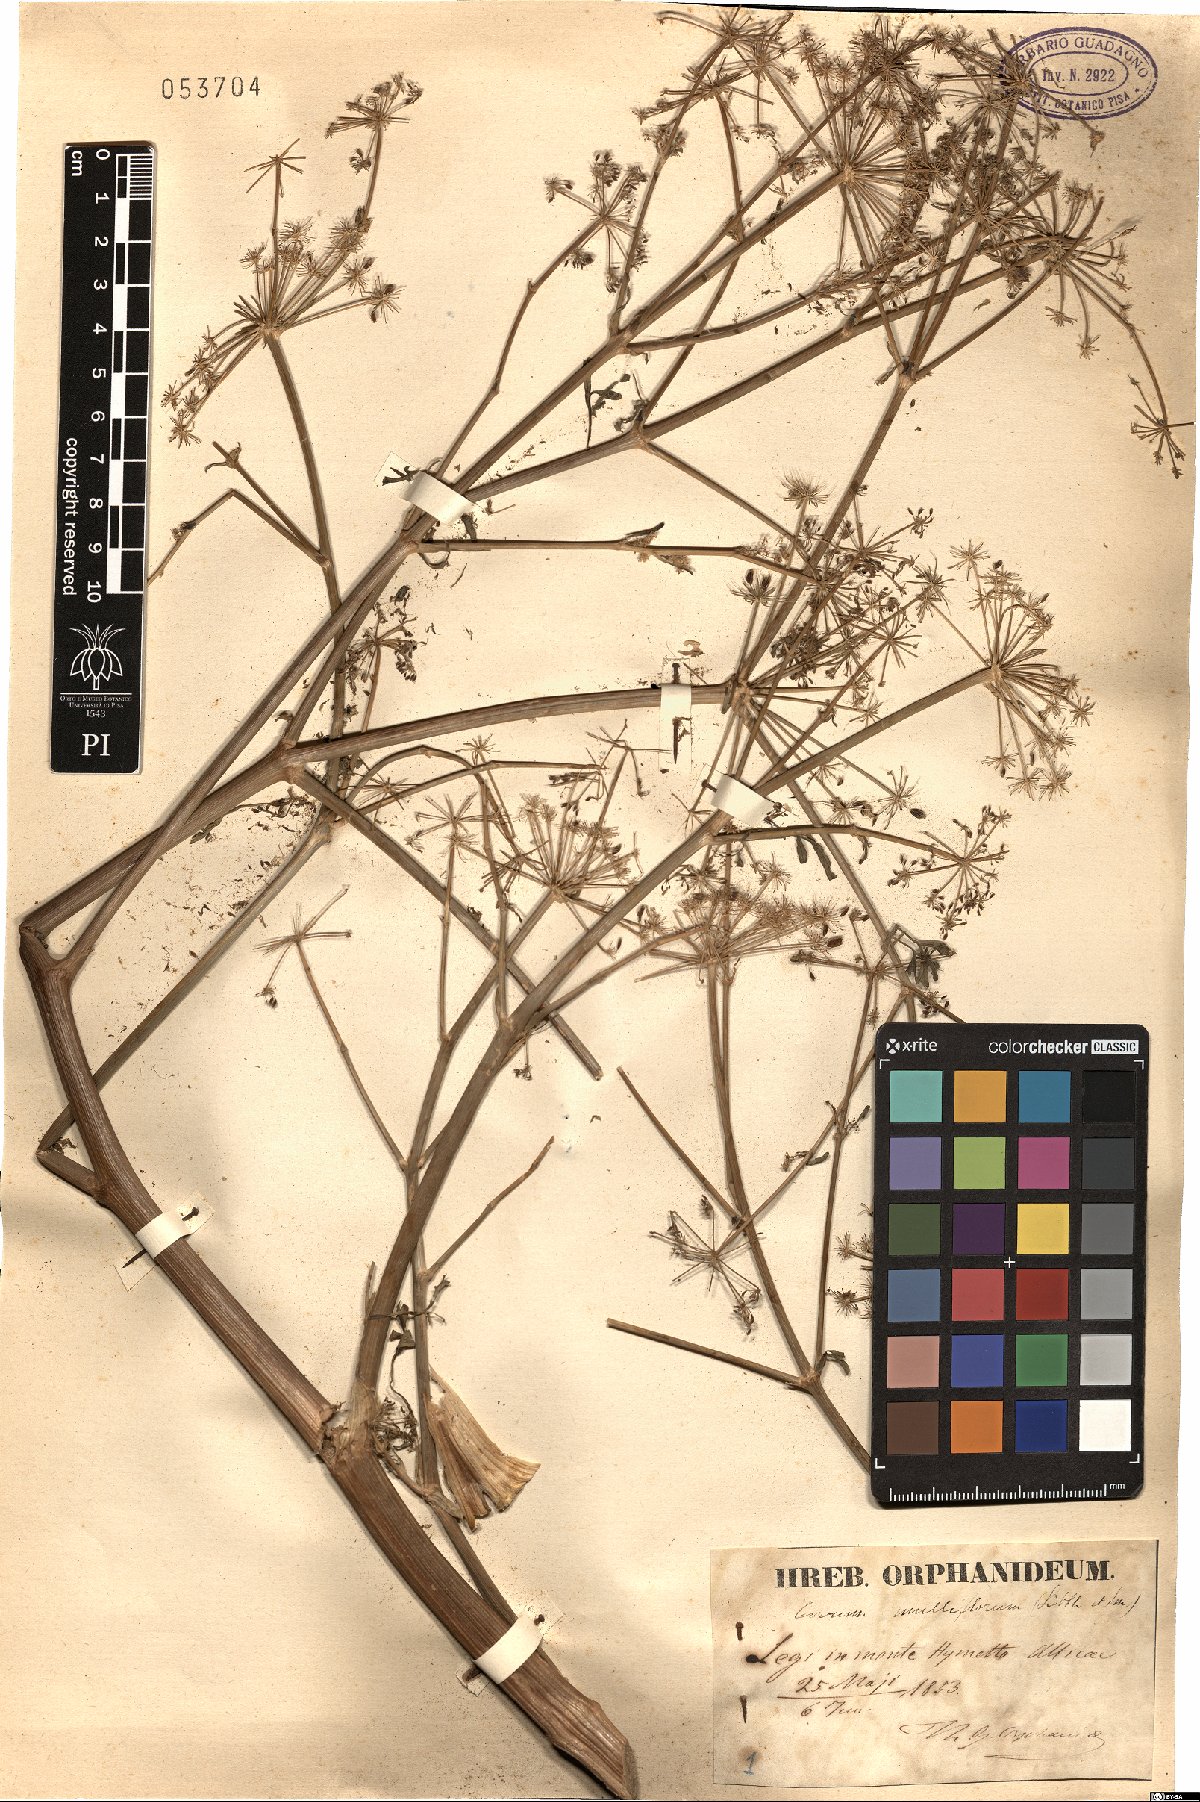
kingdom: Plantae
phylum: Tracheophyta
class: Magnoliopsida
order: Apiales
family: Apiaceae
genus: Hellenocarum
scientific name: Hellenocarum multiflorum
